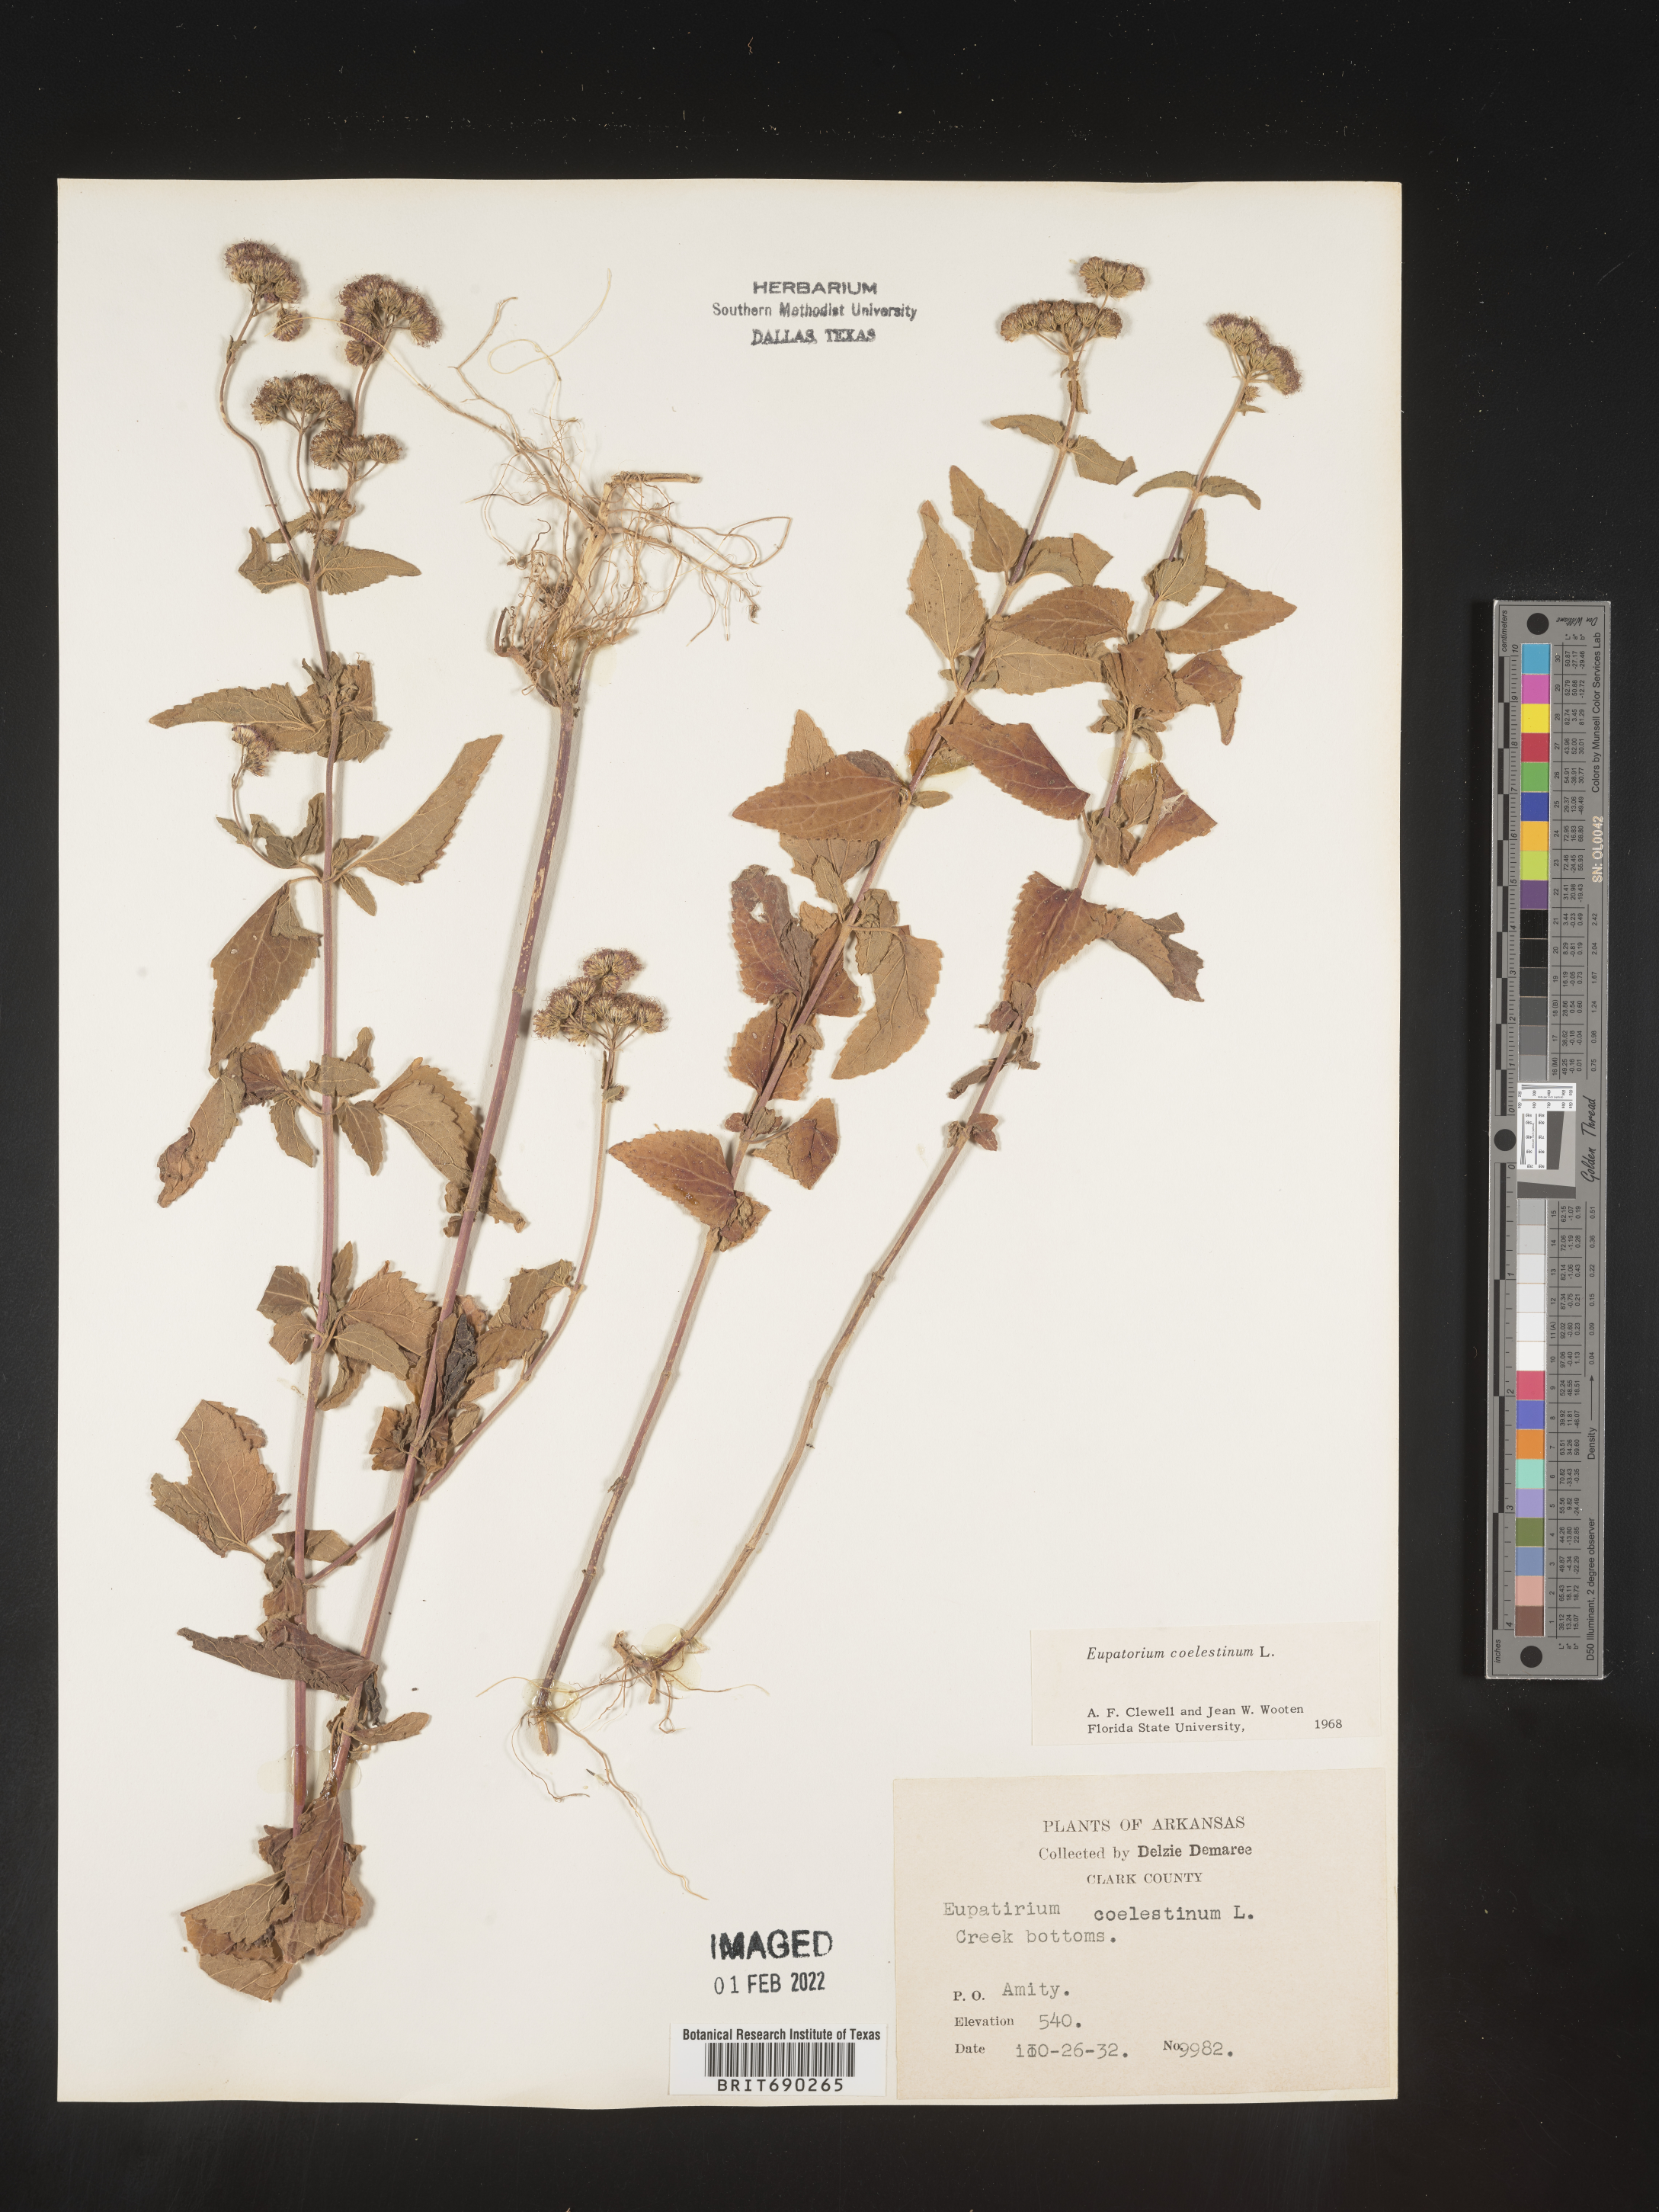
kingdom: Plantae
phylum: Tracheophyta
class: Magnoliopsida
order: Asterales
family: Asteraceae
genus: Conoclinium
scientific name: Conoclinium coelestinum
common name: Blue mistflower
